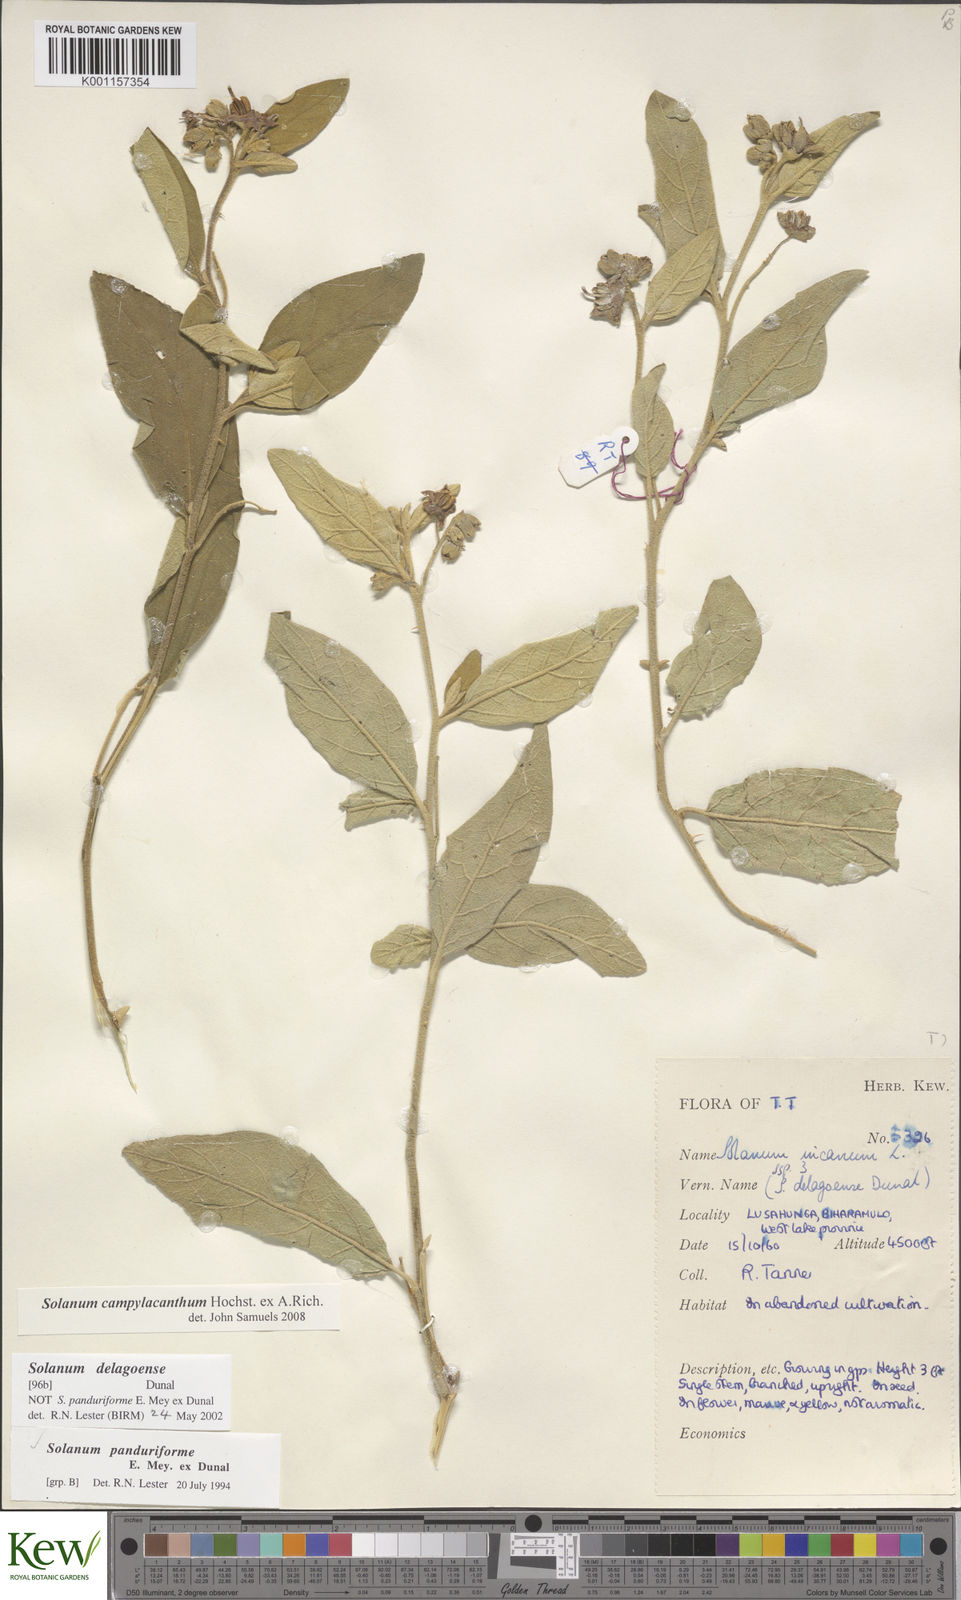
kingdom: Plantae
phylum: Tracheophyta
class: Magnoliopsida
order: Solanales
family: Solanaceae
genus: Solanum
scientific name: Solanum campylacanthum
